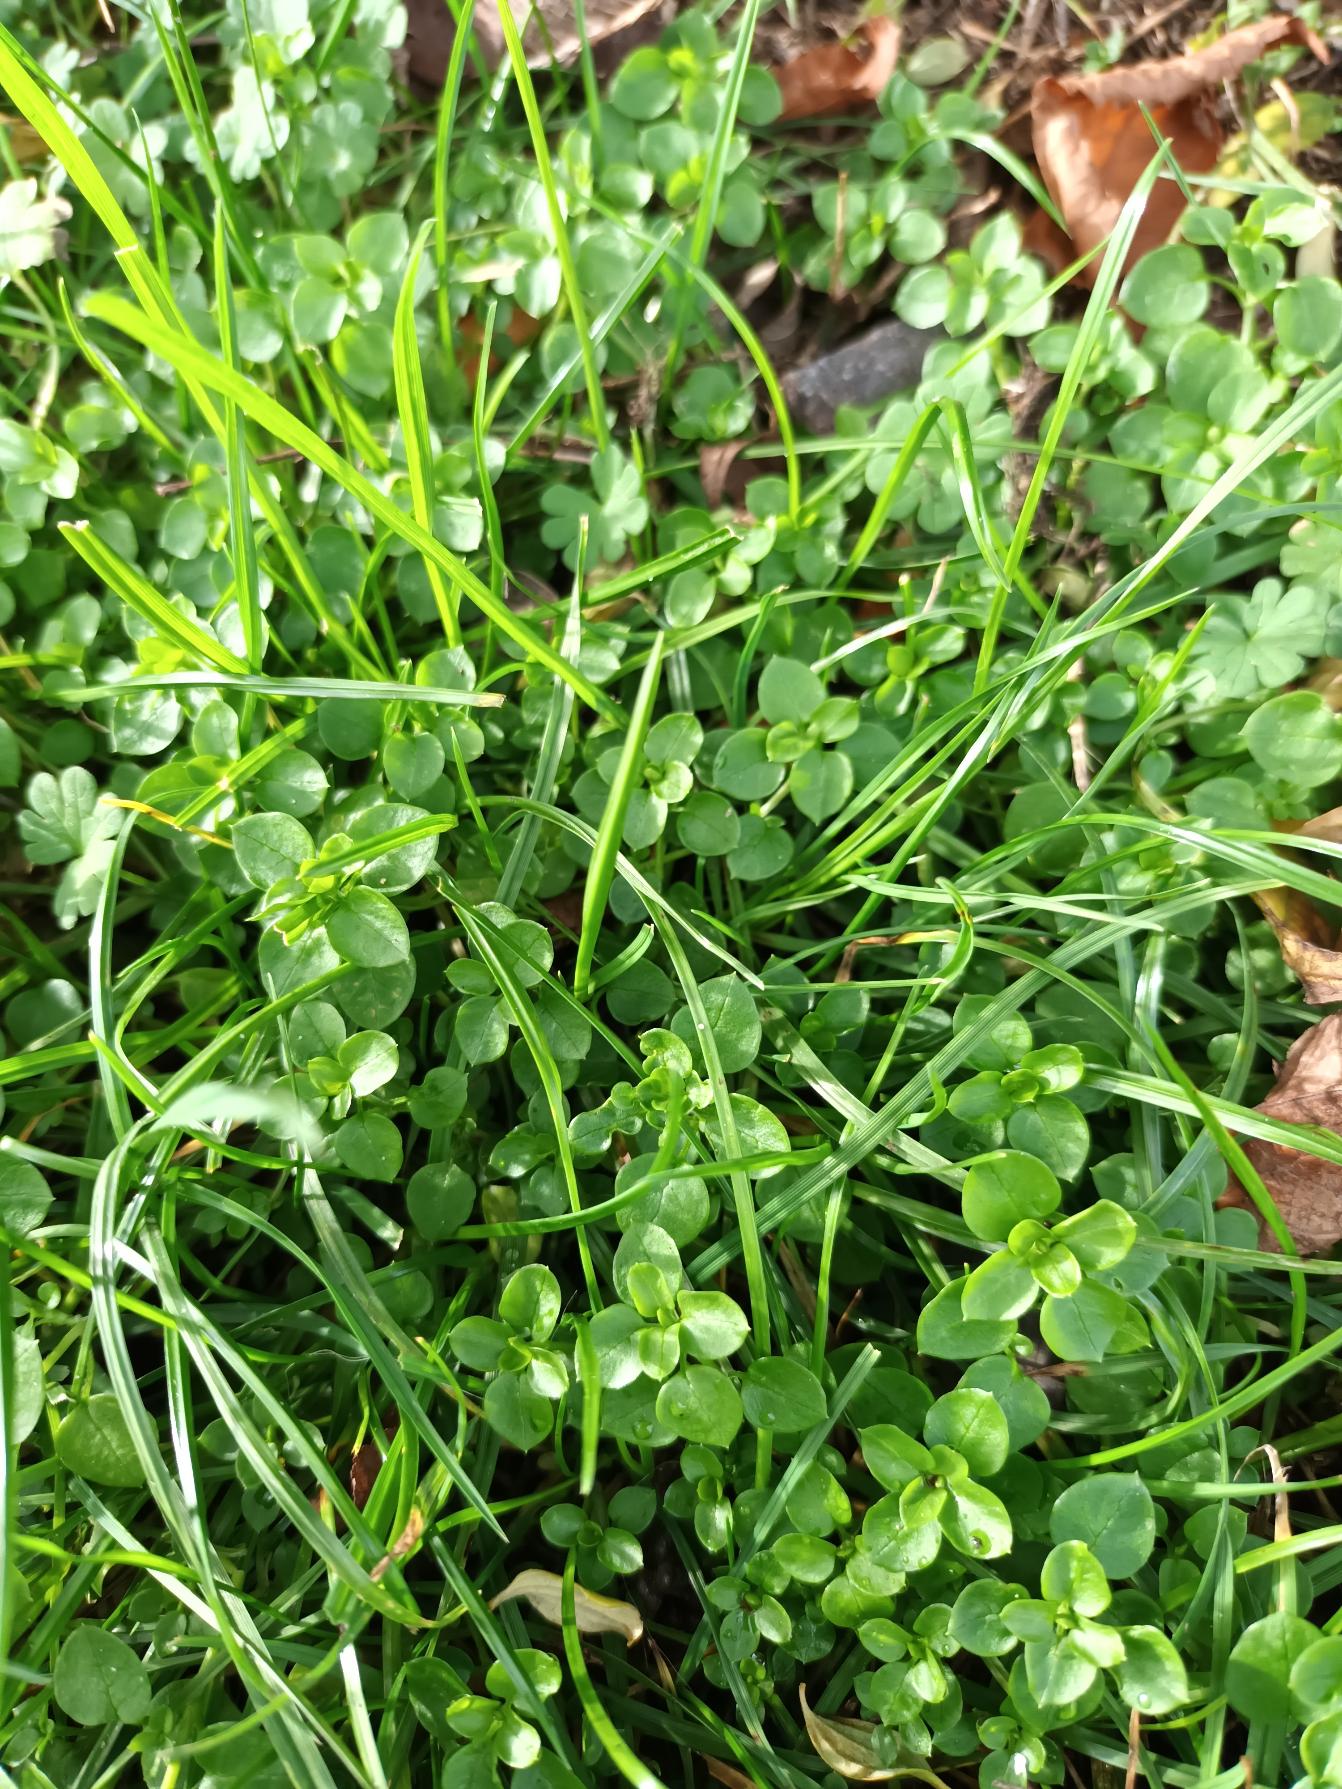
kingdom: Plantae
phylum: Tracheophyta
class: Magnoliopsida
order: Caryophyllales
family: Caryophyllaceae
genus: Stellaria
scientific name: Stellaria media
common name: Almindelig fuglegræs
